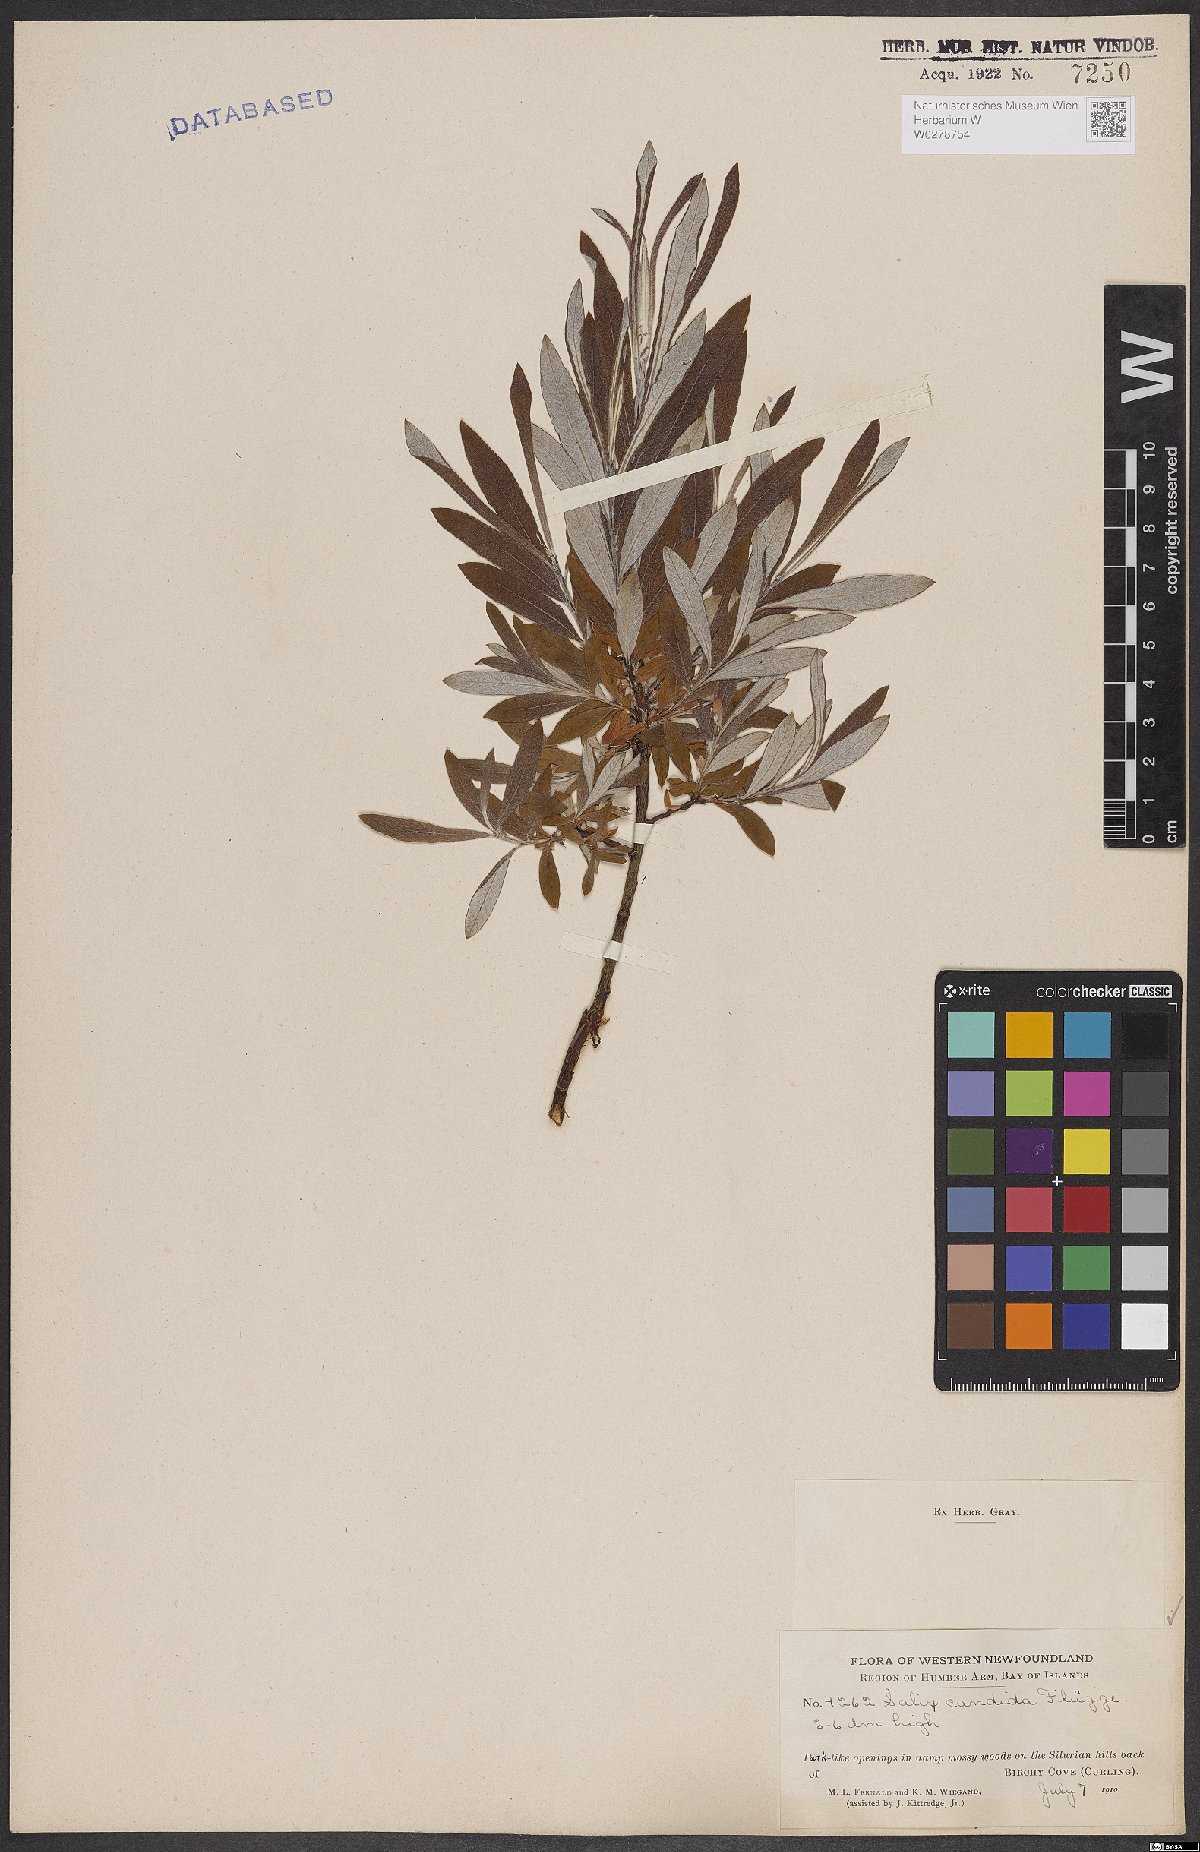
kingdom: Plantae
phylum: Tracheophyta
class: Magnoliopsida
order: Malpighiales
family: Salicaceae
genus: Salix
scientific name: Salix candida
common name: Hoary willow
